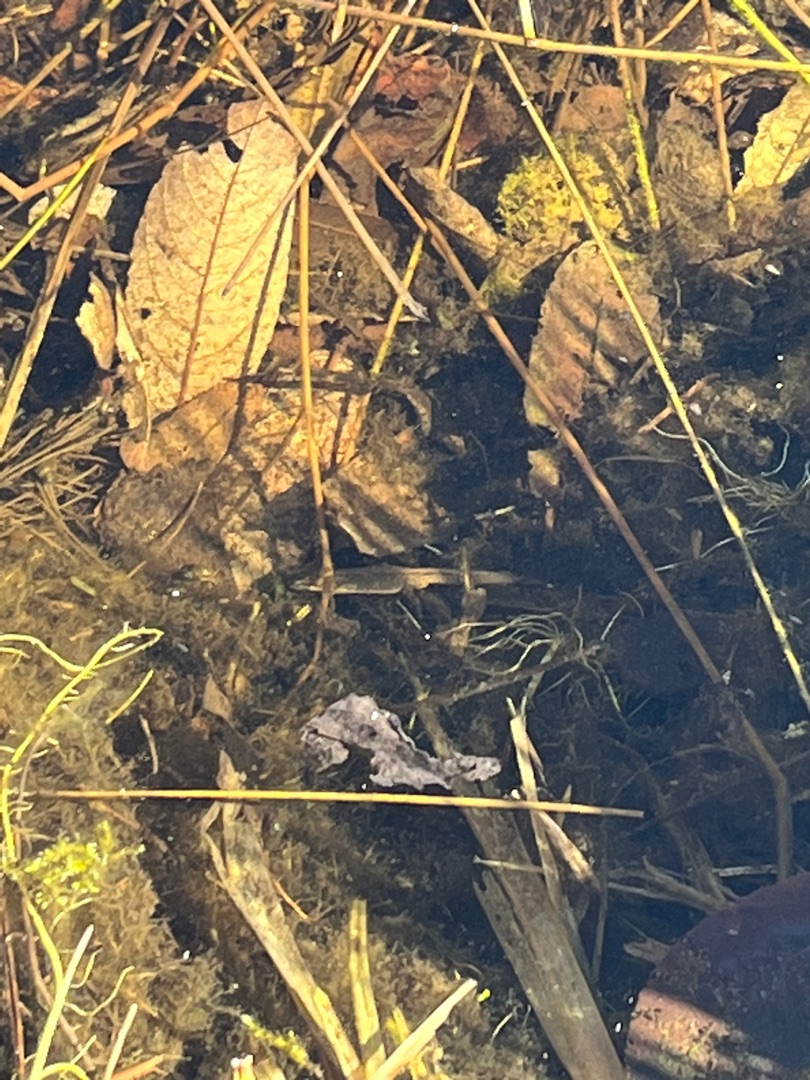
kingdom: Animalia
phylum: Chordata
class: Amphibia
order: Caudata
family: Salamandridae
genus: Lissotriton
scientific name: Lissotriton vulgaris
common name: Lille vandsalamander
